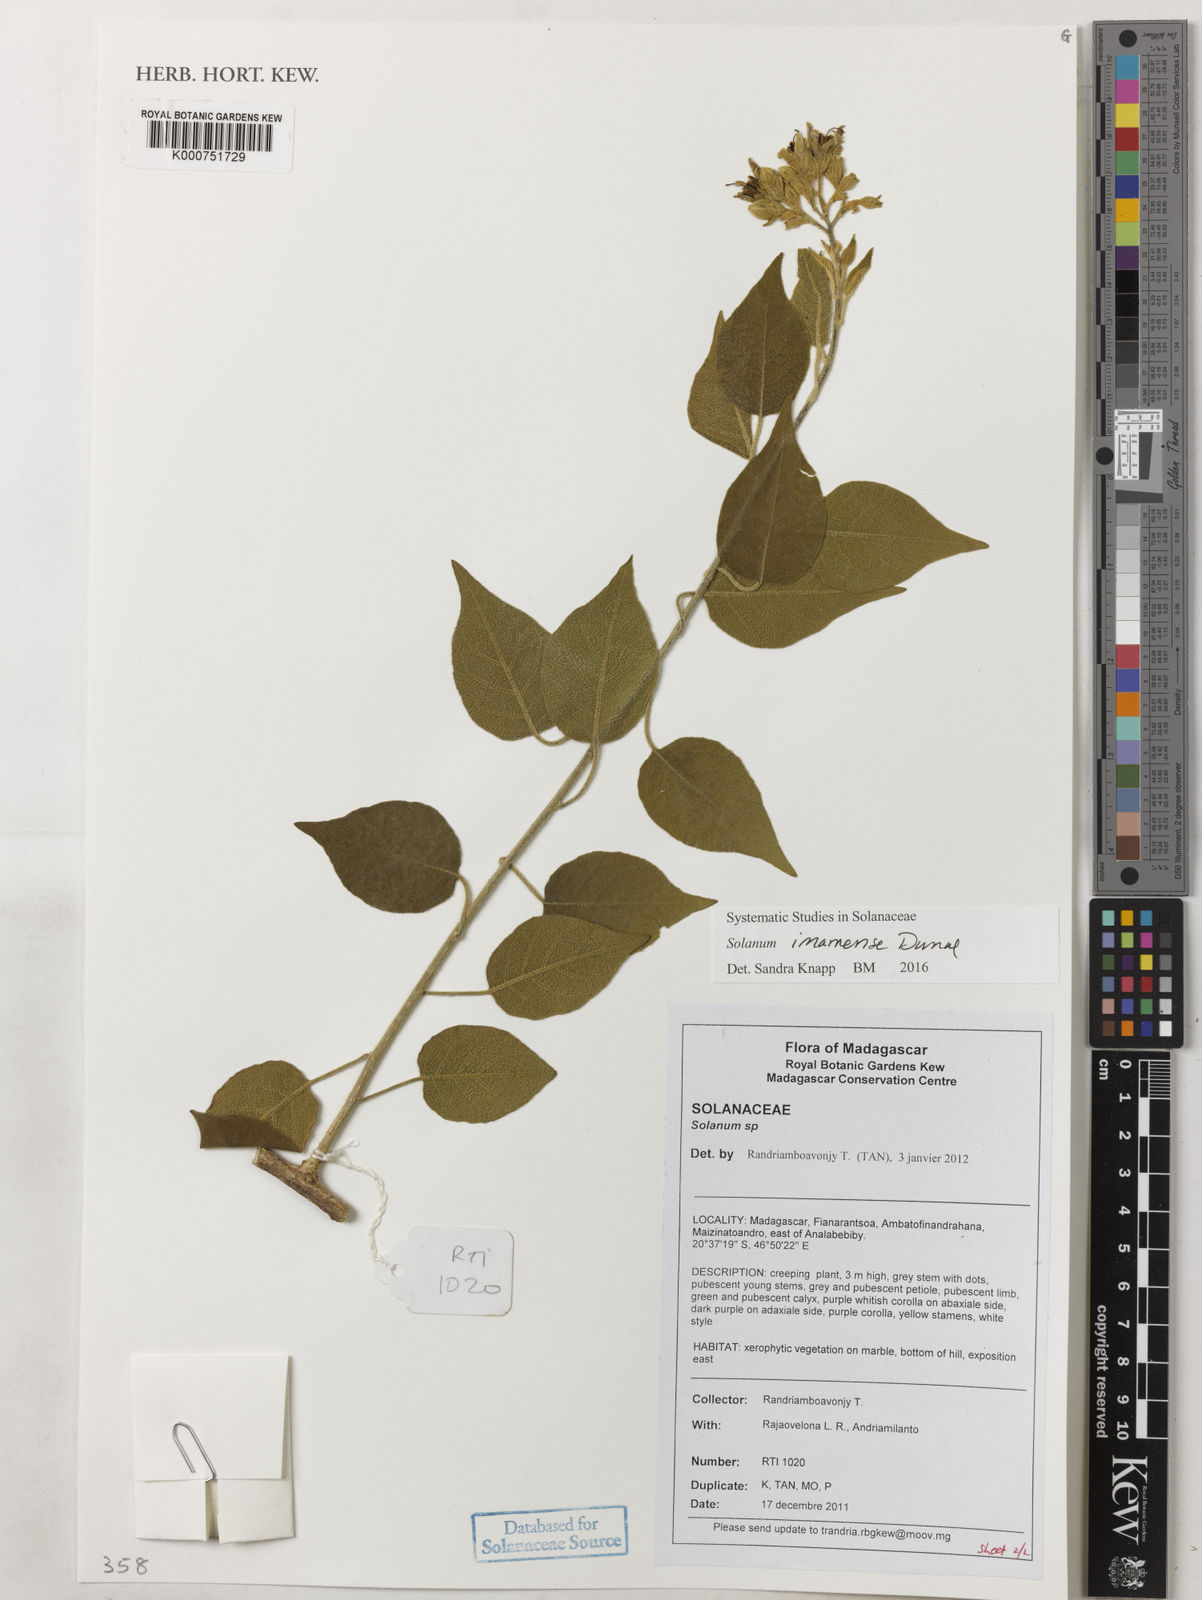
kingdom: Plantae
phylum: Tracheophyta
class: Magnoliopsida
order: Solanales
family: Solanaceae
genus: Solanum
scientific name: Solanum imamense
